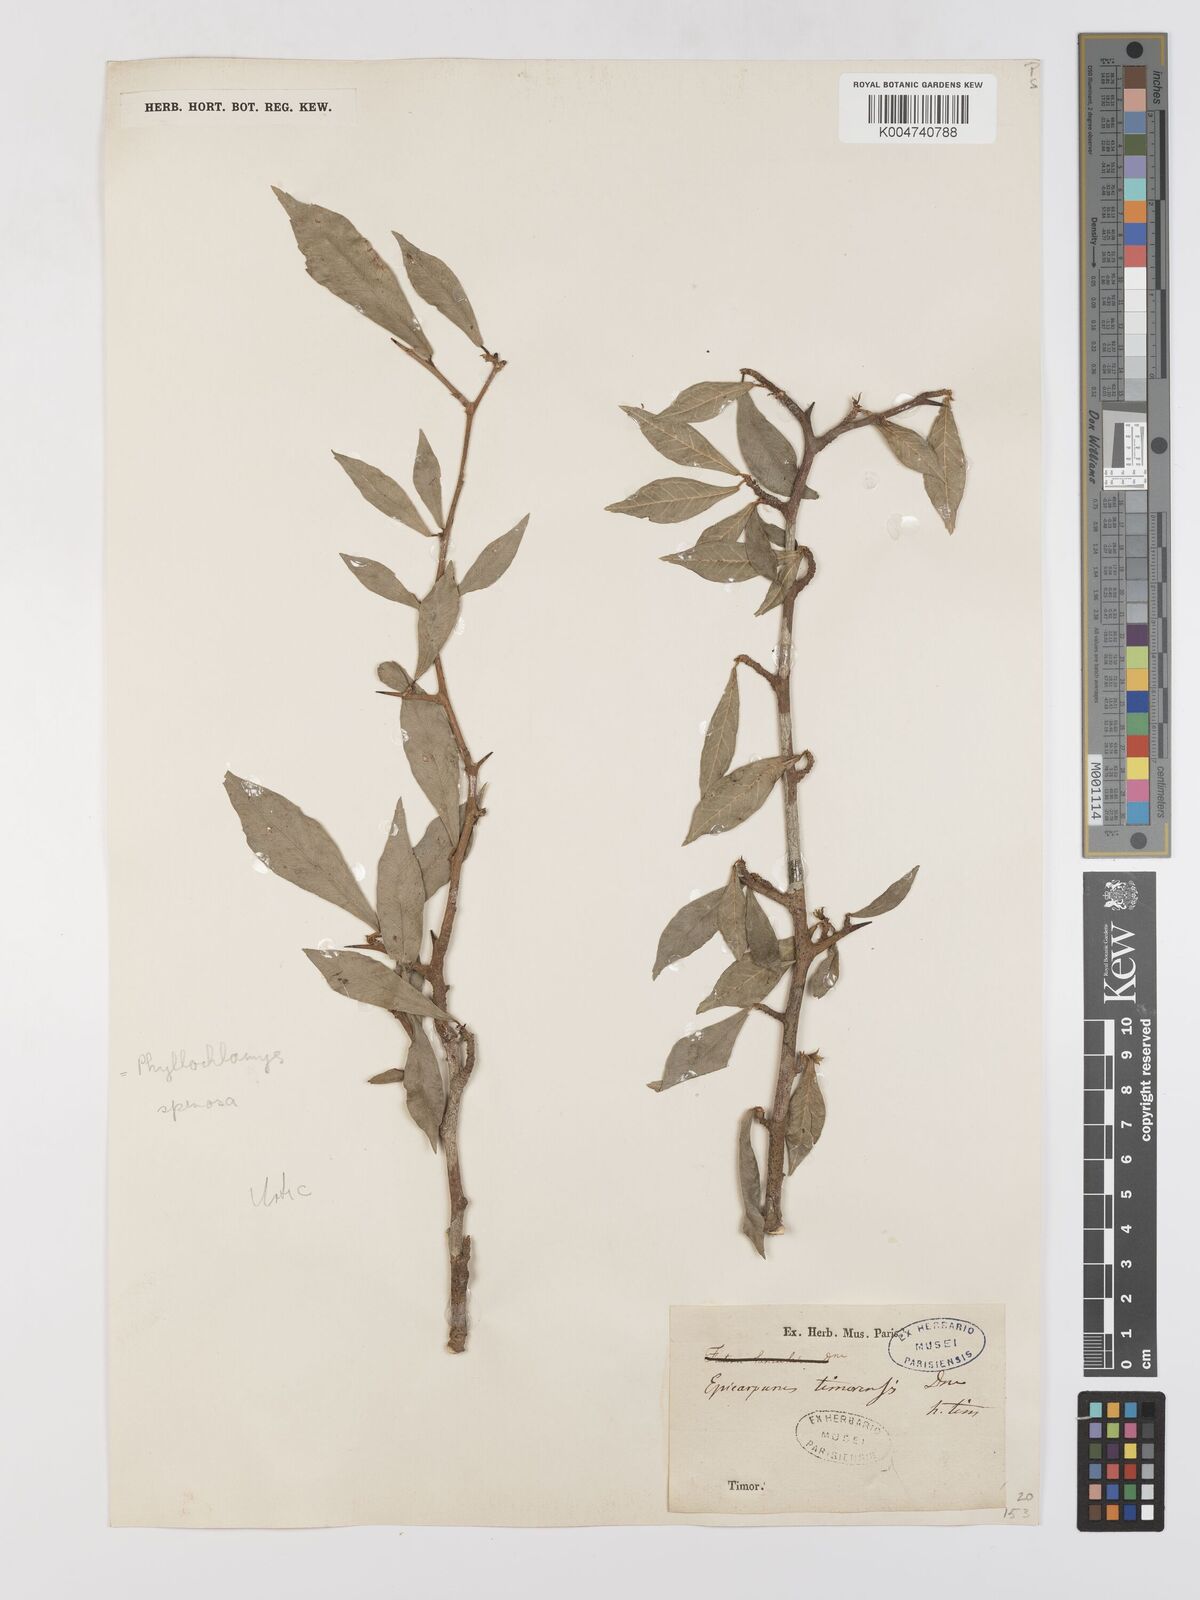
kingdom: Plantae
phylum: Tracheophyta
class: Magnoliopsida
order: Rosales
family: Moraceae
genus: Taxotrophis
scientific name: Taxotrophis taxoides
